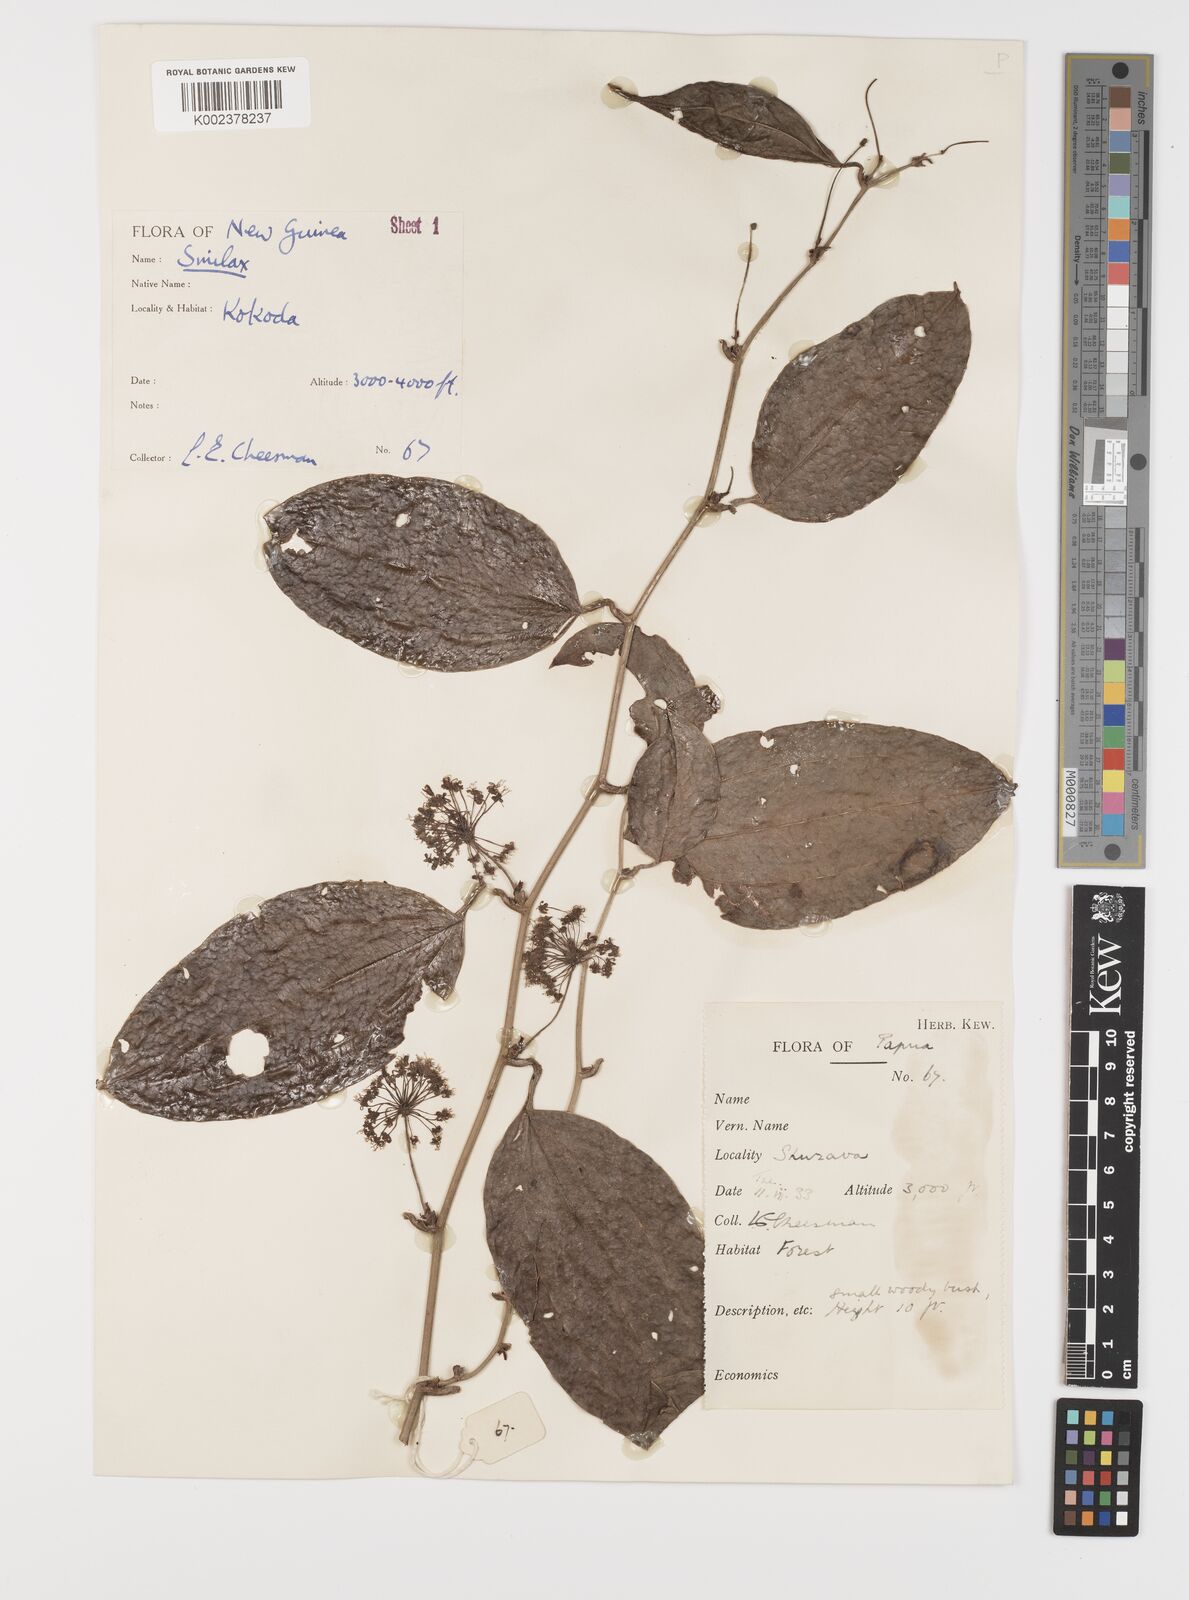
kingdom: Plantae
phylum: Tracheophyta
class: Liliopsida
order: Liliales
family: Smilacaceae
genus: Smilax
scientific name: Smilax
